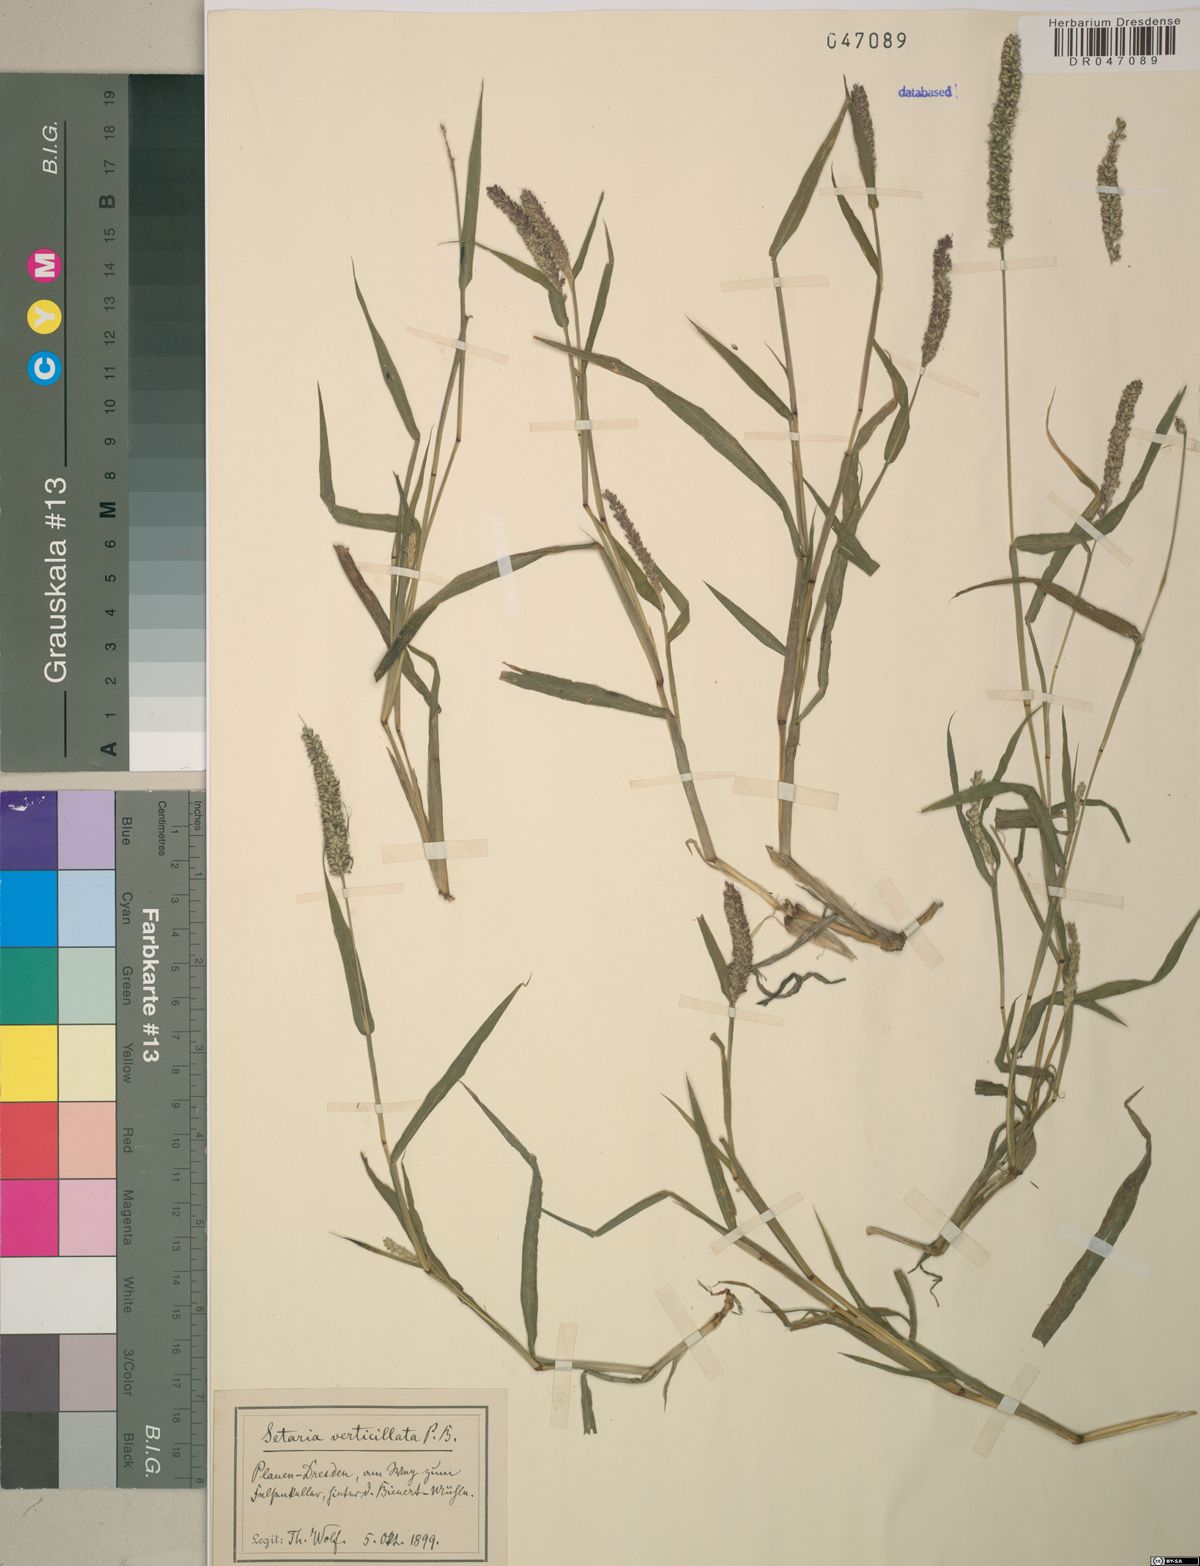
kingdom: Plantae
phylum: Tracheophyta
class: Liliopsida
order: Poales
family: Poaceae
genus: Setaria
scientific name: Setaria verticillata
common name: Hooked bristlegrass
